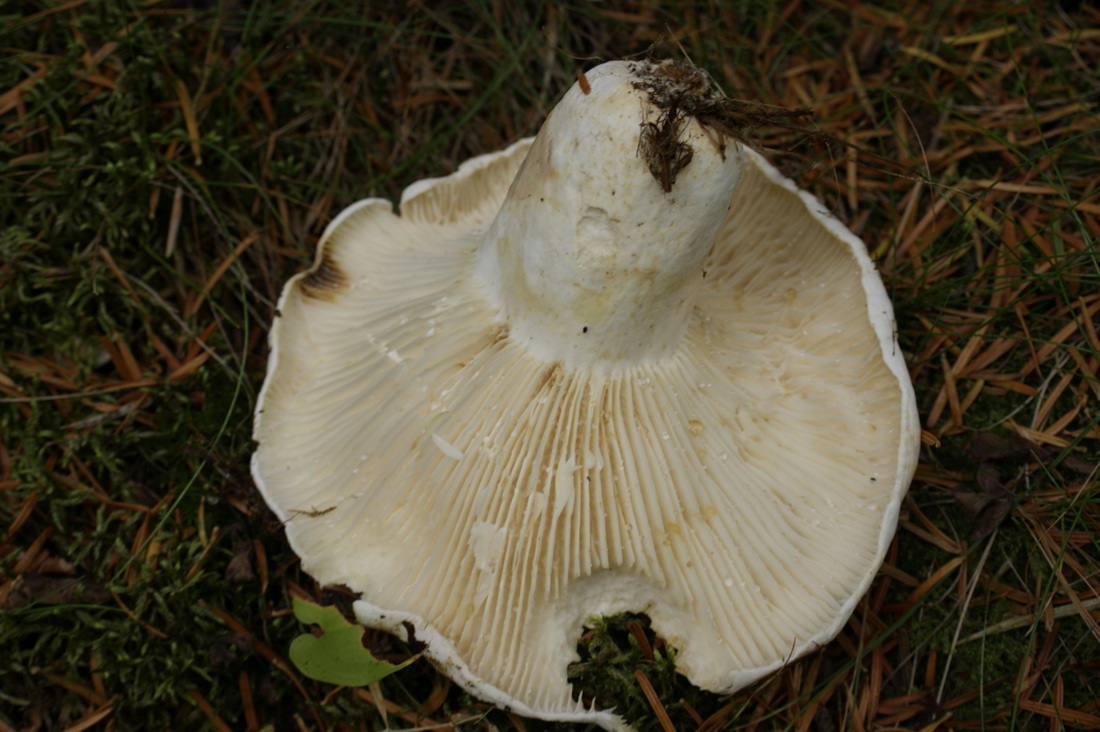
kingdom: Fungi
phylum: Basidiomycota
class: Agaricomycetes
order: Russulales
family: Russulaceae
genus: Lactifluus
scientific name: Lactifluus bertillonii
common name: blødfiltet mælkehat
